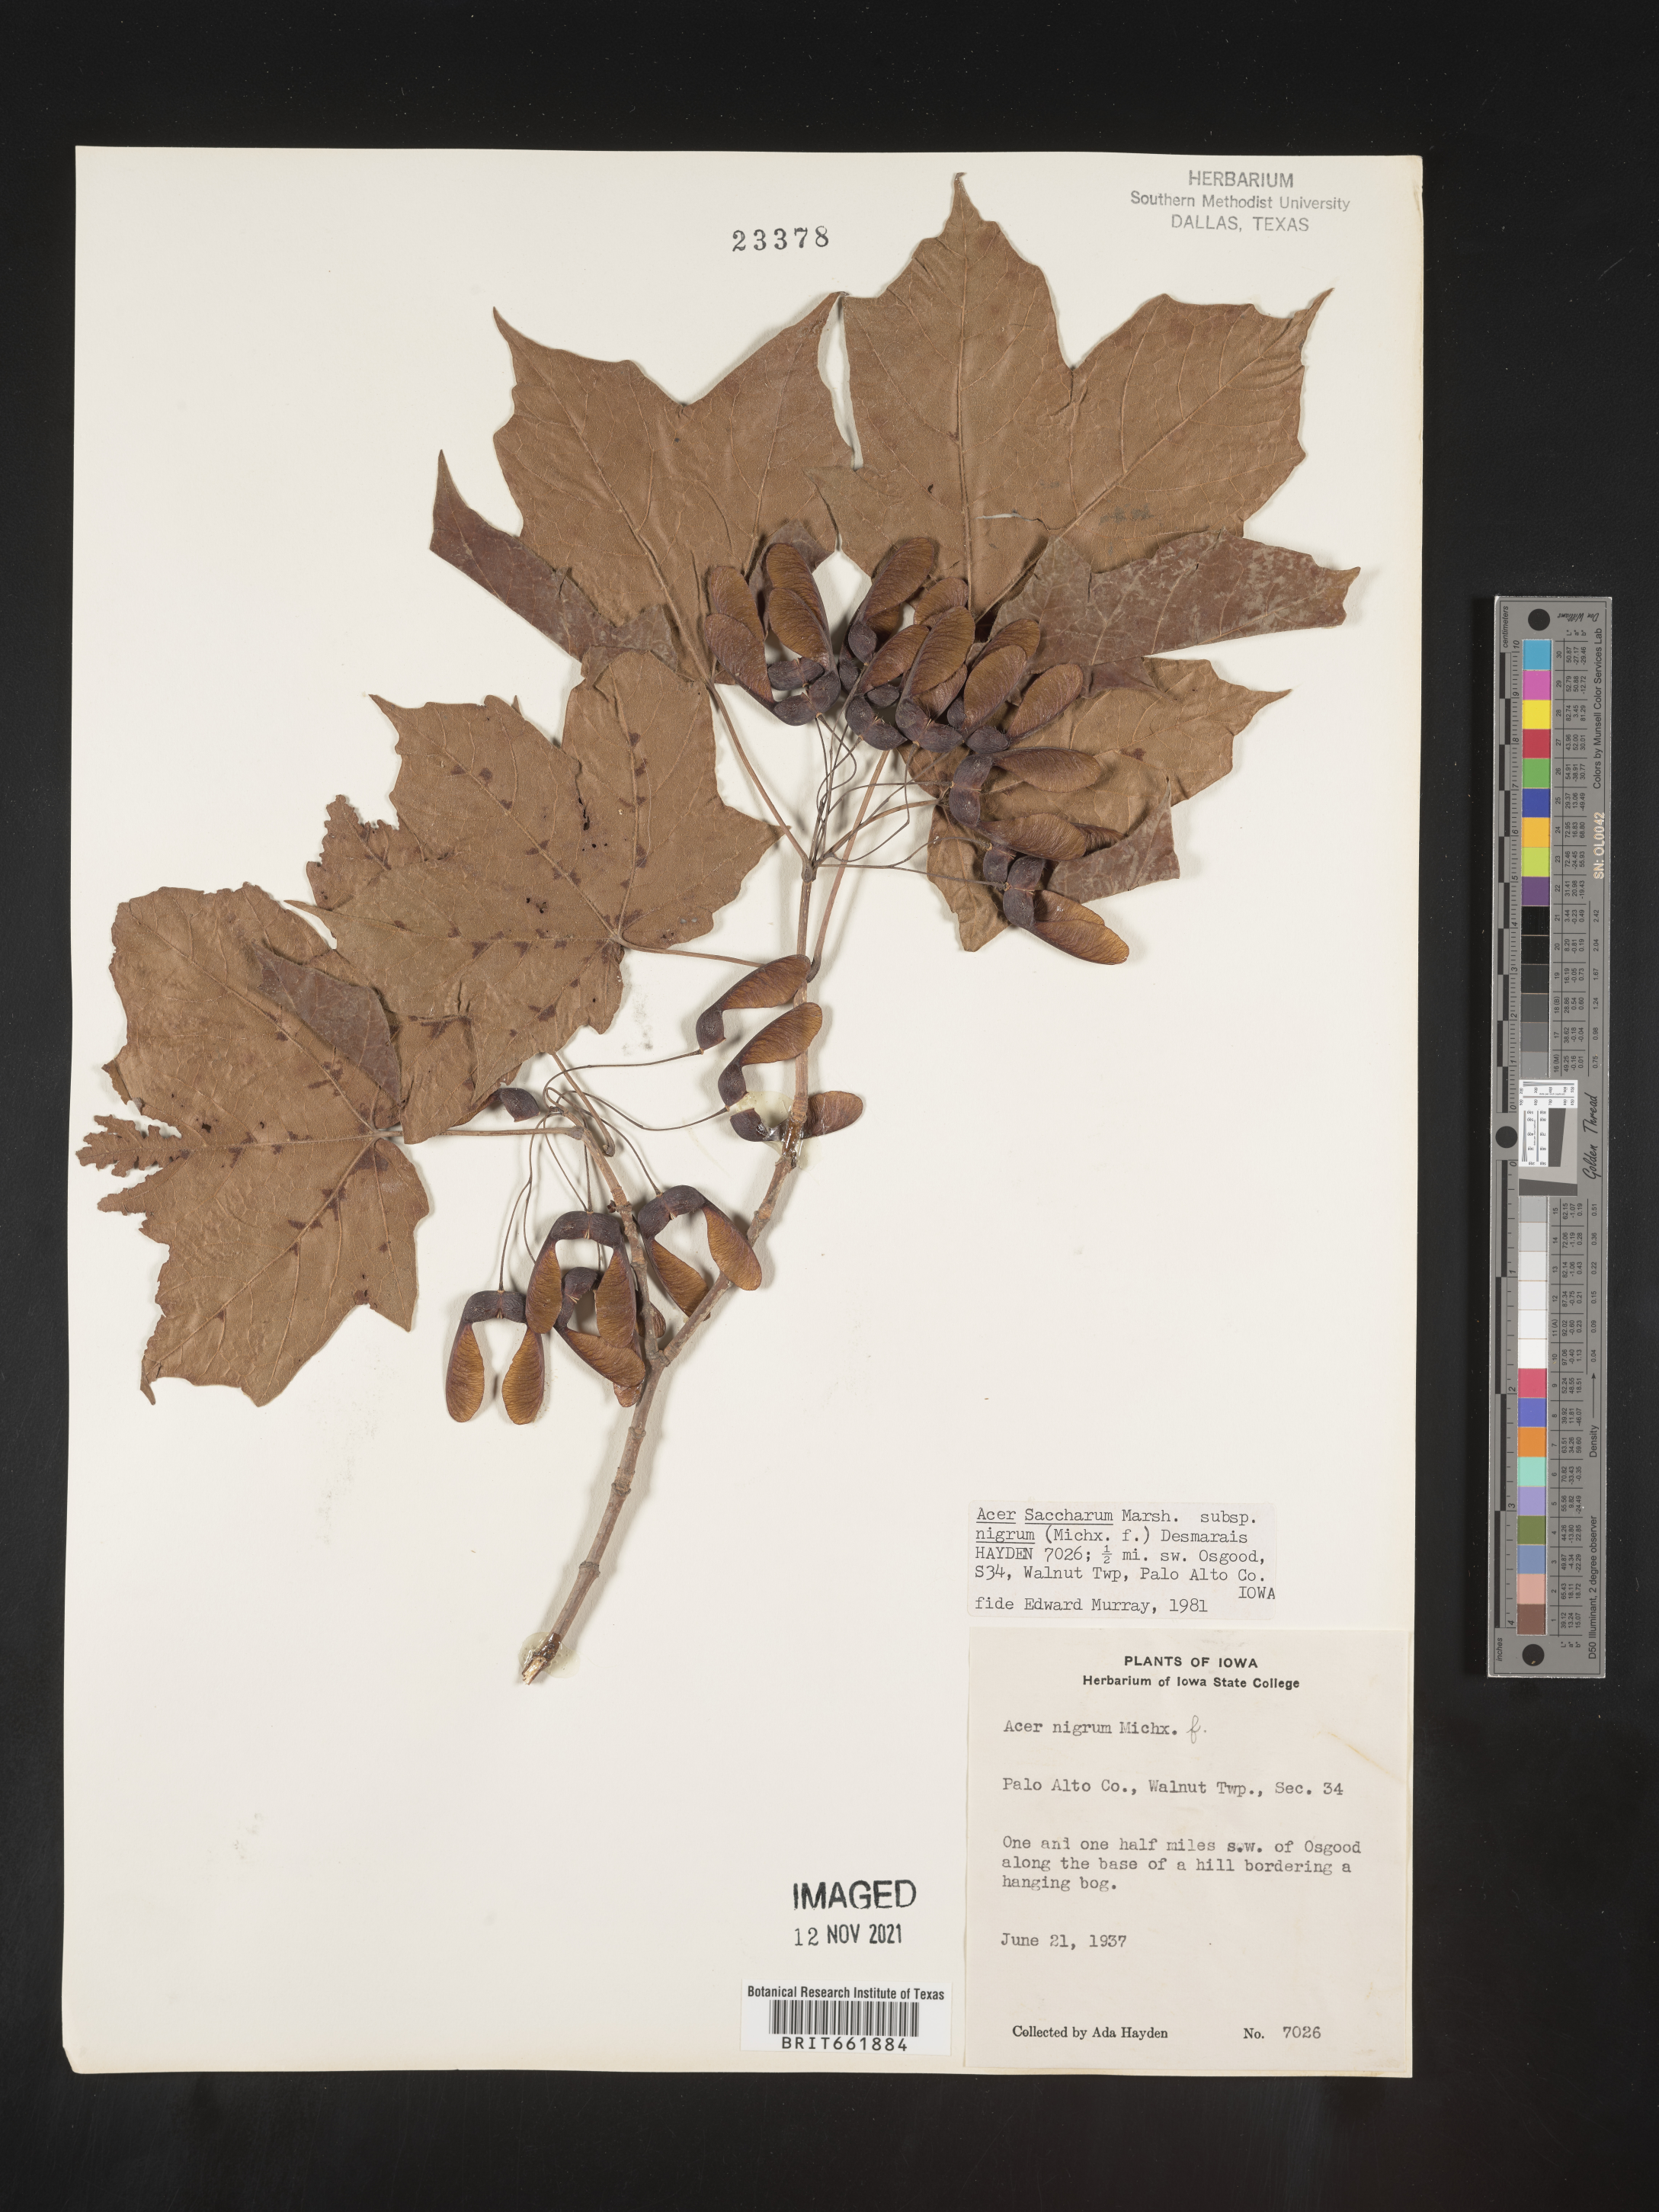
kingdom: Plantae
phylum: Tracheophyta
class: Magnoliopsida
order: Sapindales
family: Sapindaceae
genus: Acer
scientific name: Acer nigrum
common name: Black maple
